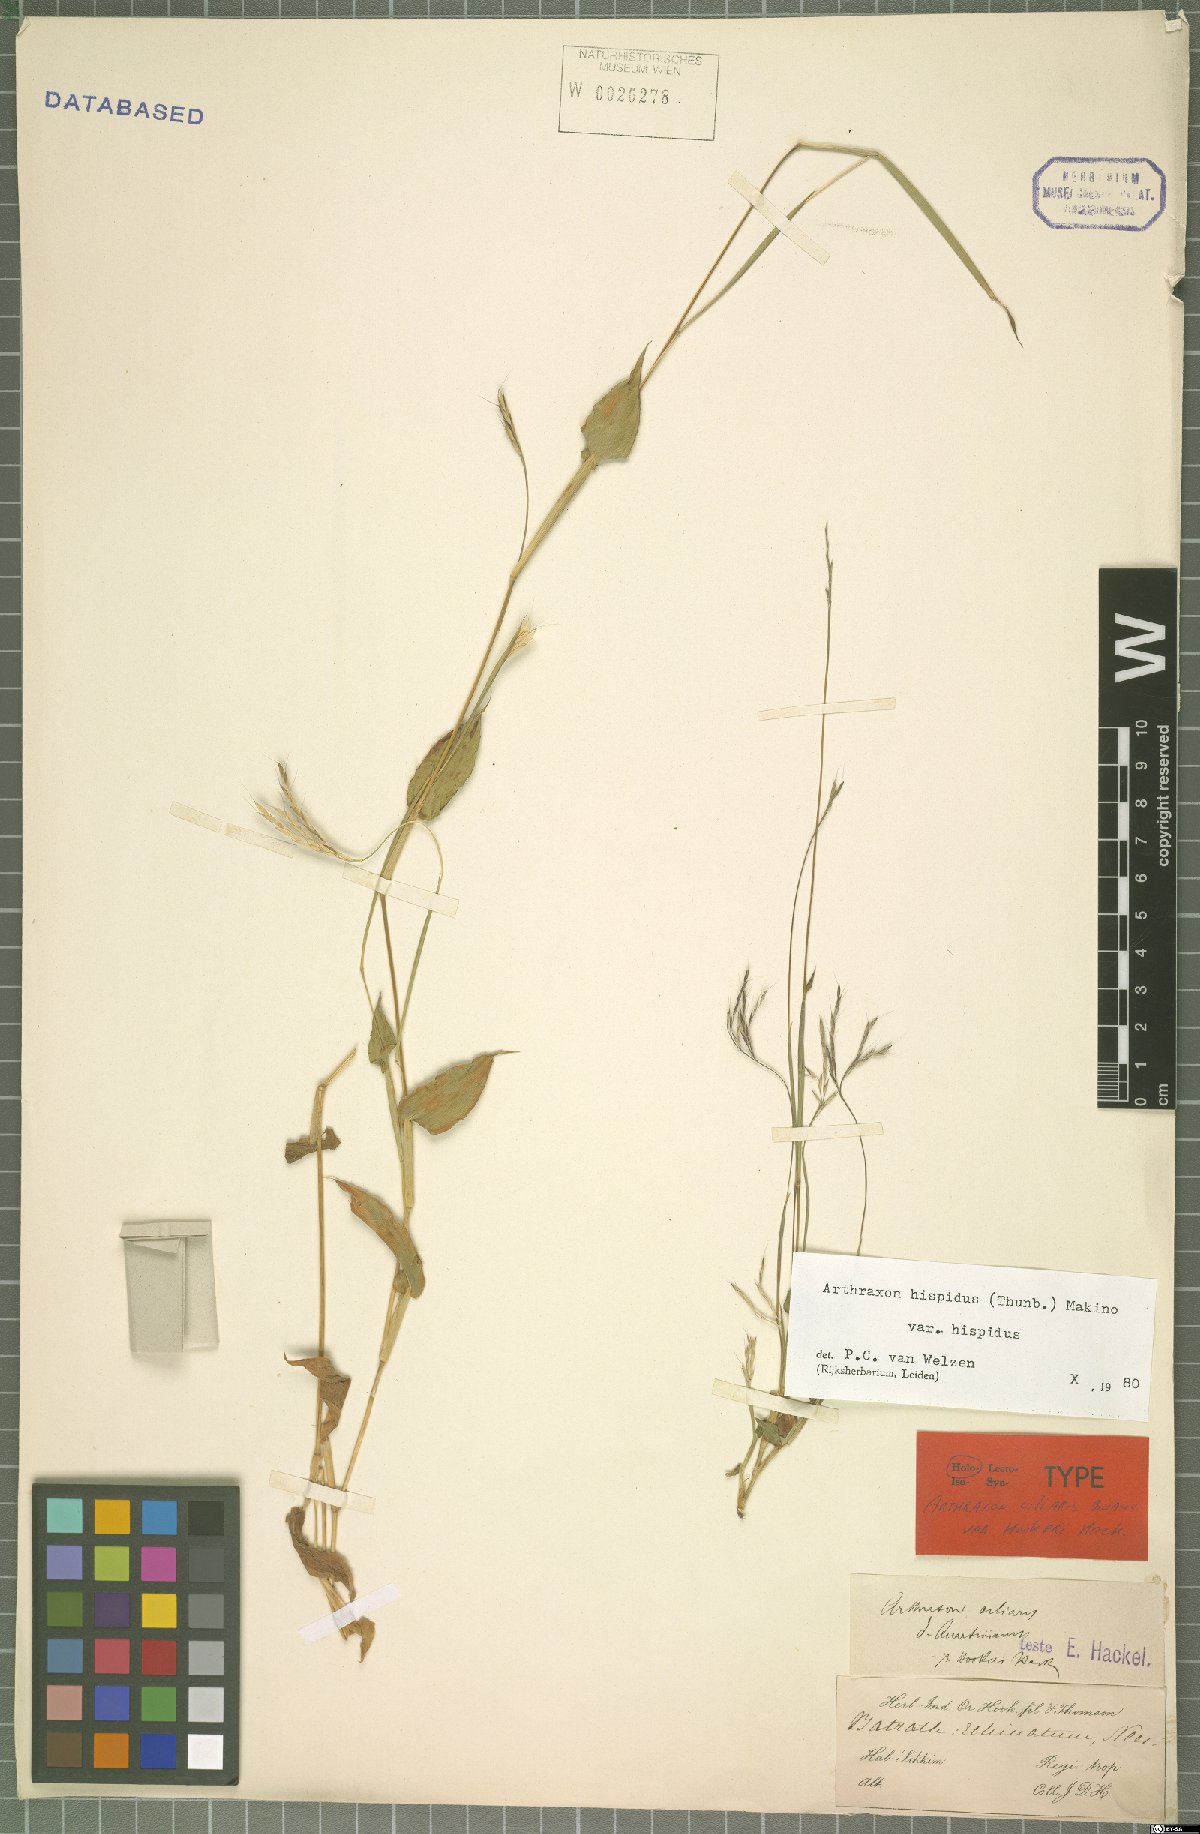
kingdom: Plantae
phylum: Tracheophyta
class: Liliopsida
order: Poales
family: Poaceae
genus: Arthraxon
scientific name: Arthraxon hispidus
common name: Small carpgrass
